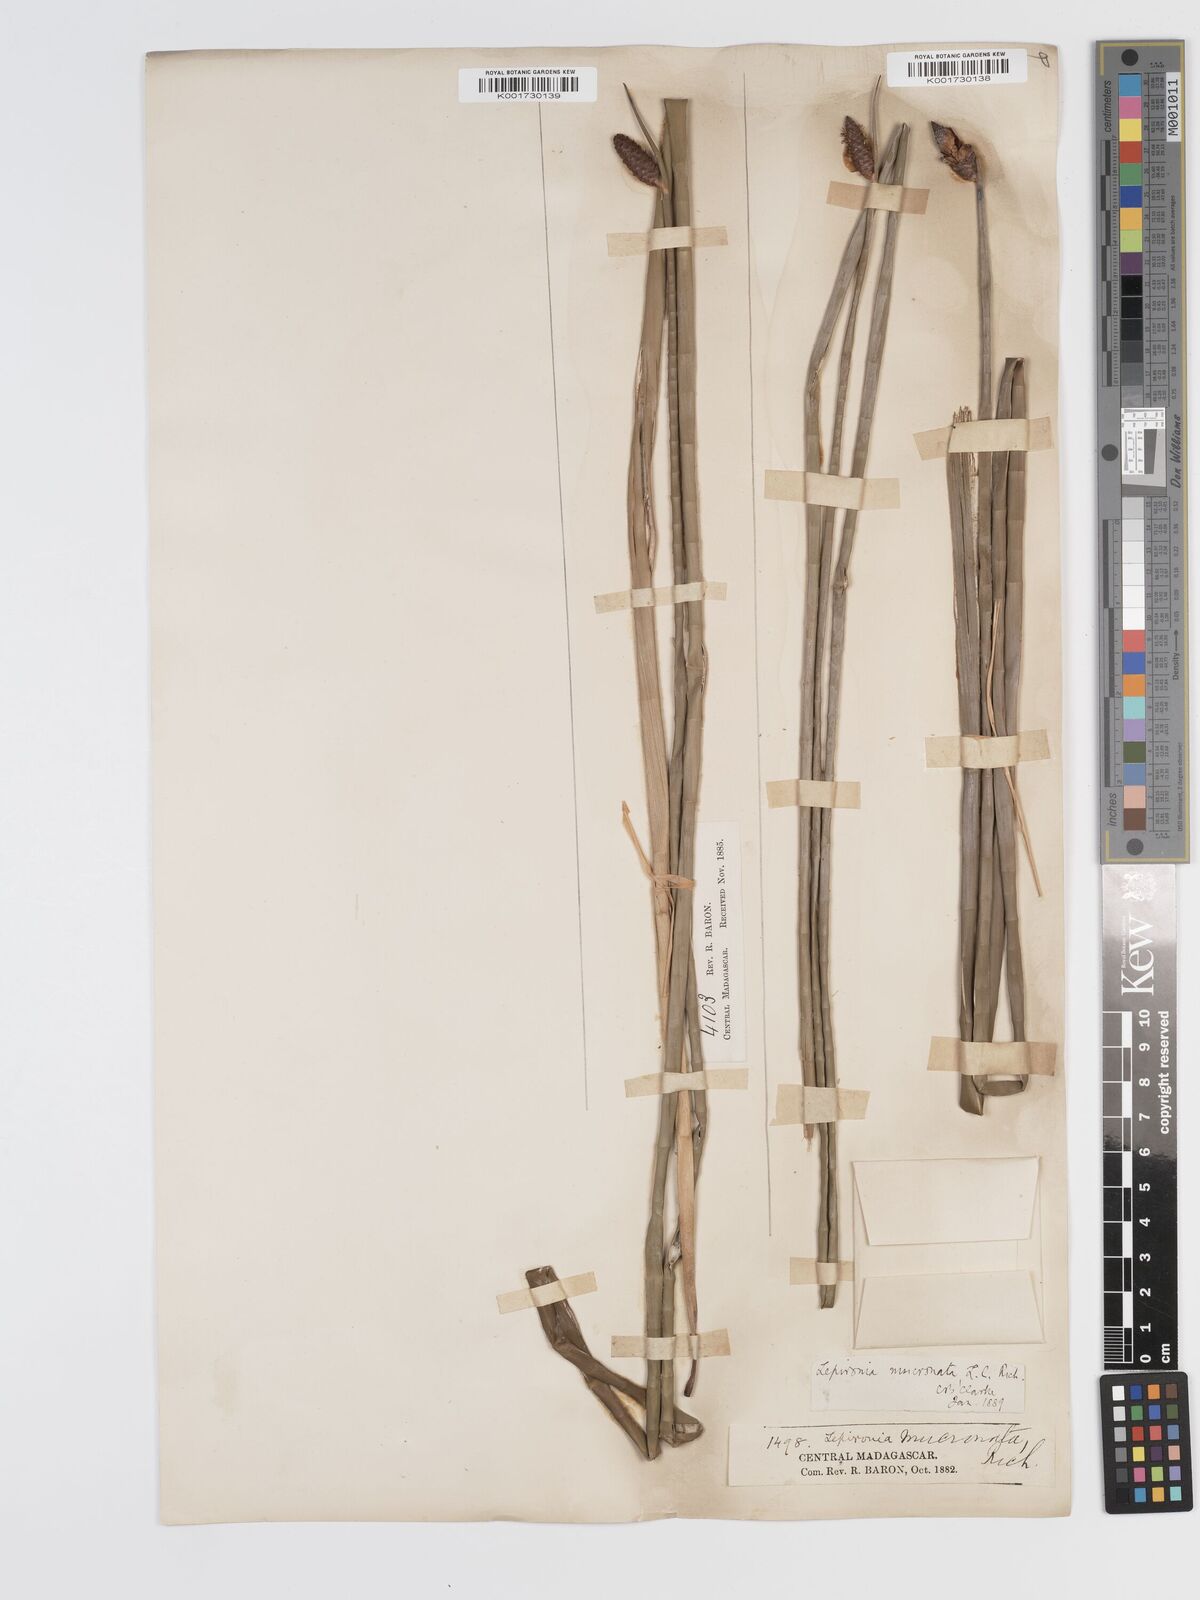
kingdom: Plantae
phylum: Tracheophyta
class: Liliopsida
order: Poales
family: Cyperaceae
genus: Lepironia
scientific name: Lepironia articulata
